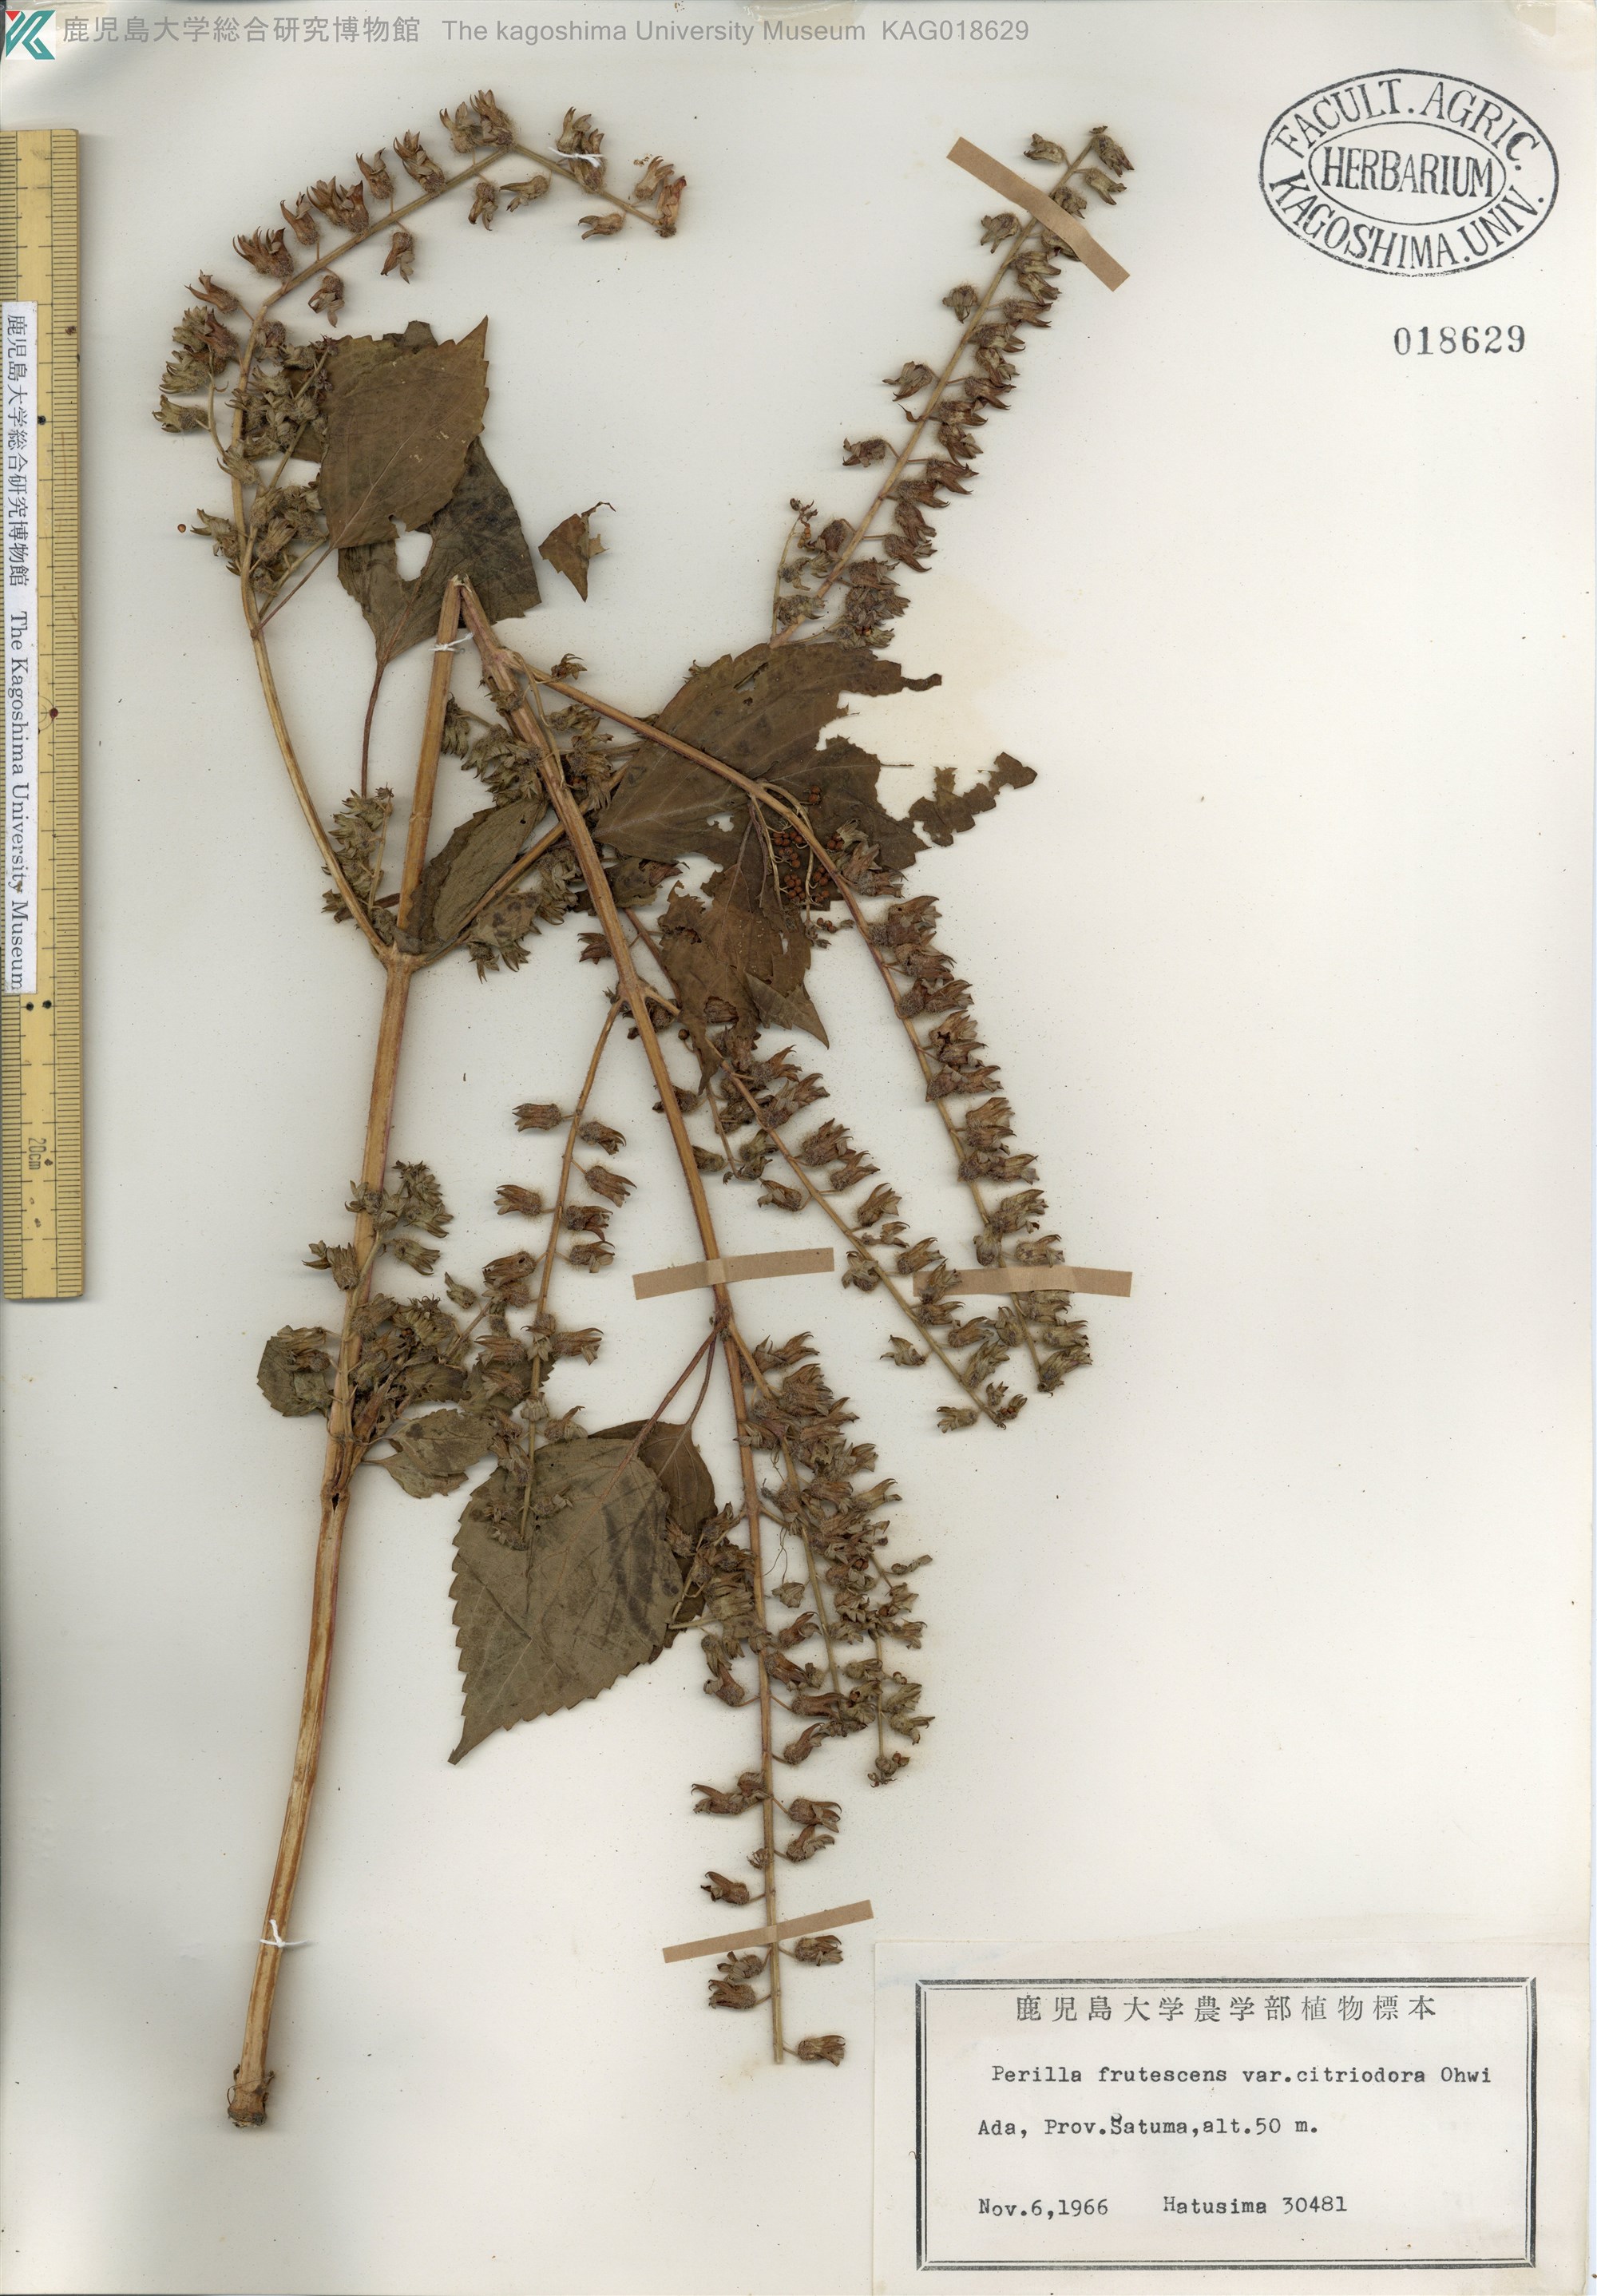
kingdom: Plantae
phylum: Tracheophyta
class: Magnoliopsida
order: Lamiales
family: Lamiaceae
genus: Perilla
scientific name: Perilla frutescens
